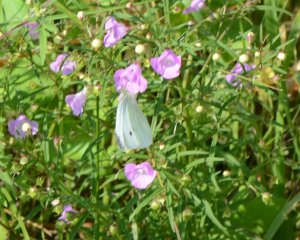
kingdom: Animalia
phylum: Arthropoda
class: Insecta
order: Lepidoptera
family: Pieridae
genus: Pieris
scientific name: Pieris rapae
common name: Cabbage White
